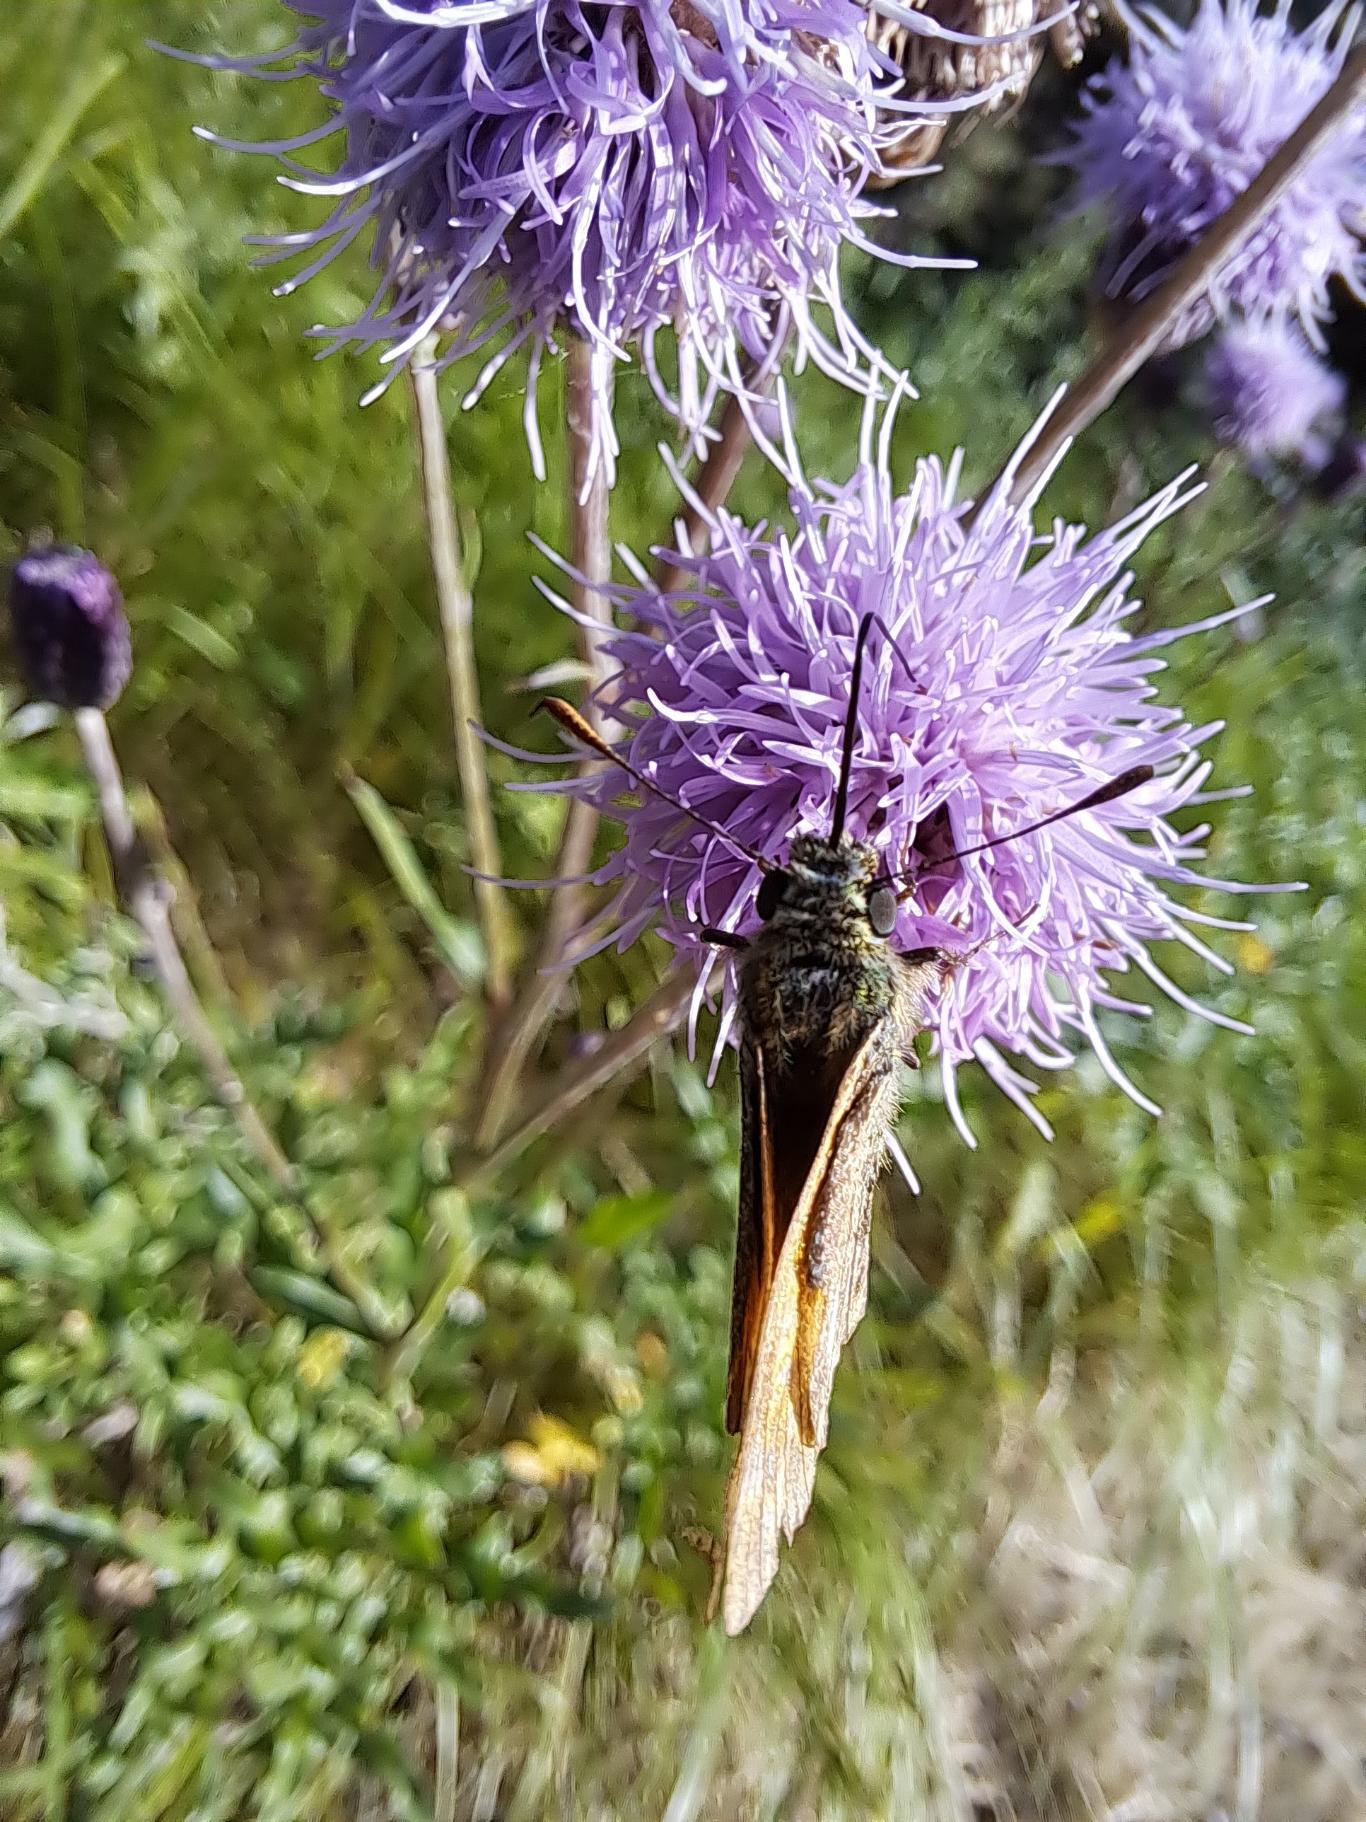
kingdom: Animalia
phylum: Arthropoda
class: Insecta
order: Lepidoptera
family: Hesperiidae
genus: Ochlodes
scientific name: Ochlodes venata
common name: Stor bredpande
